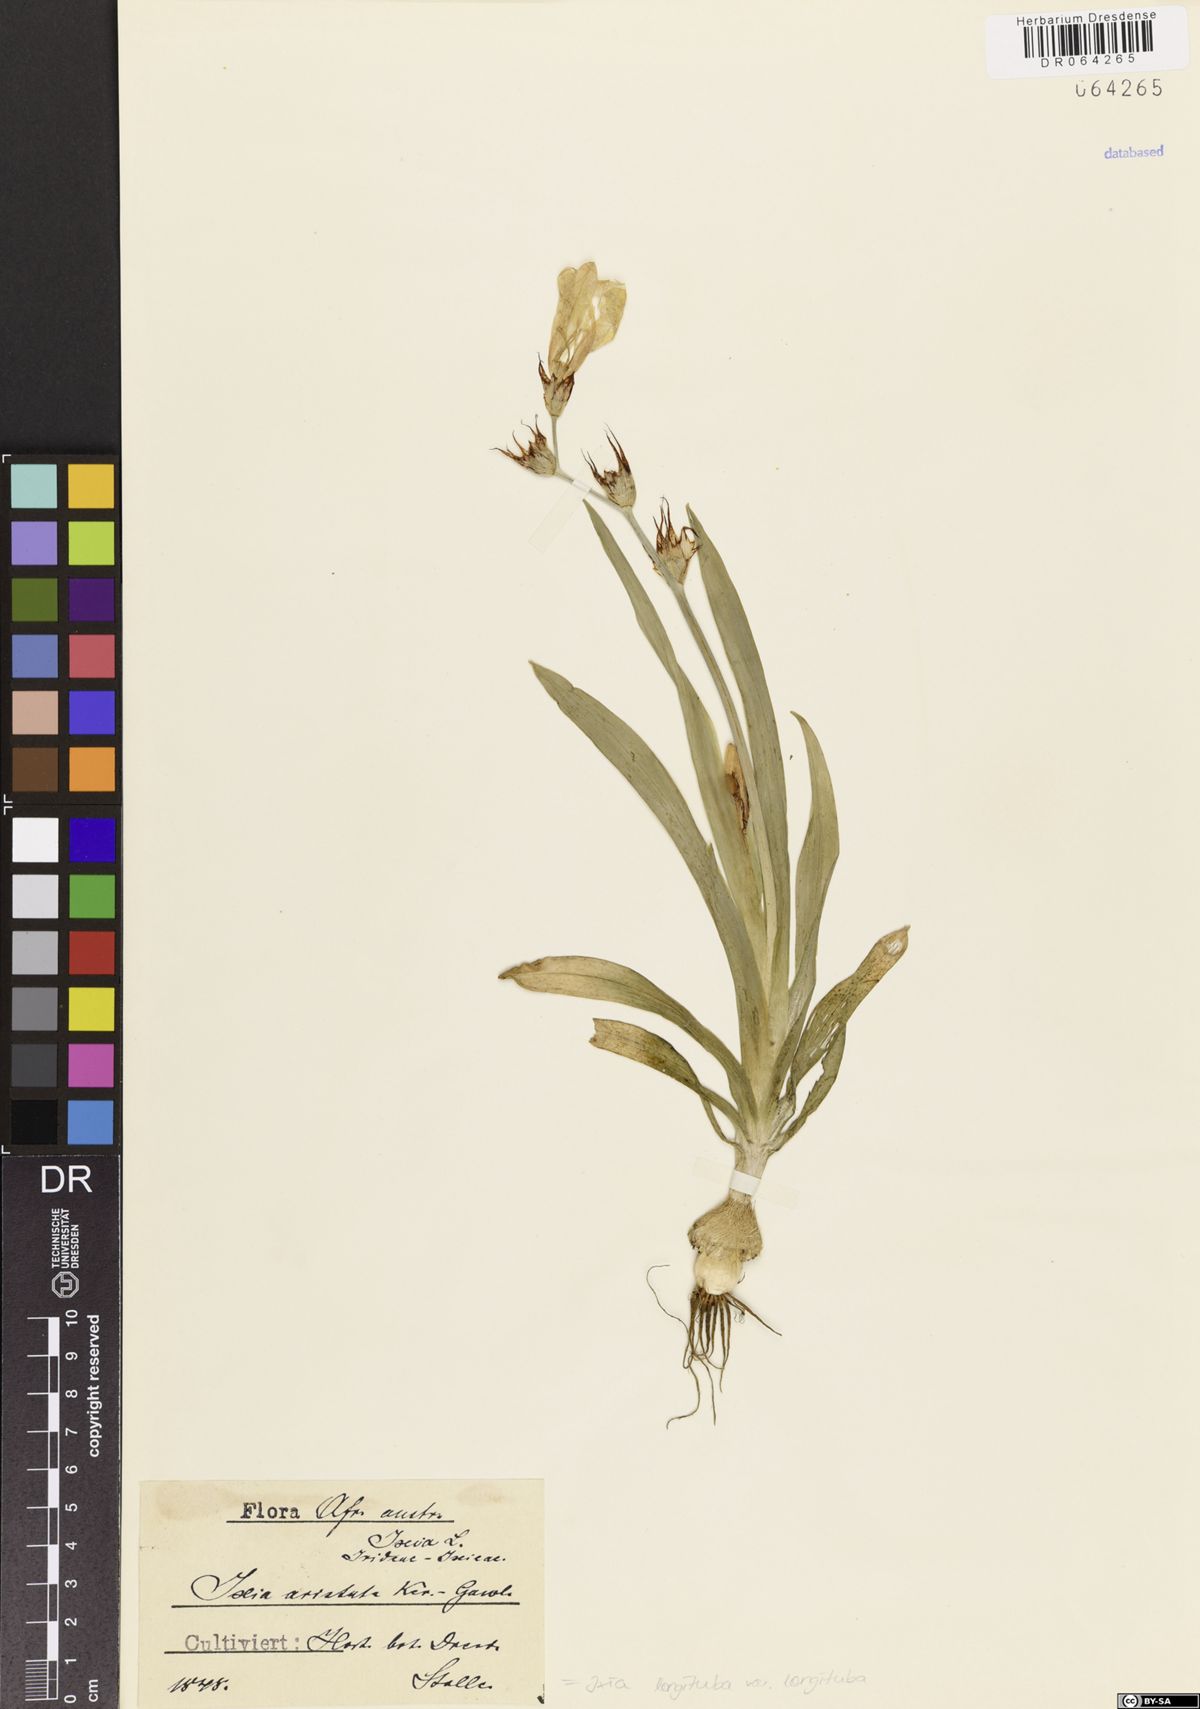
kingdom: Plantae
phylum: Tracheophyta
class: Liliopsida
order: Asparagales
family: Iridaceae
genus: Ixia
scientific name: Ixia longituba
